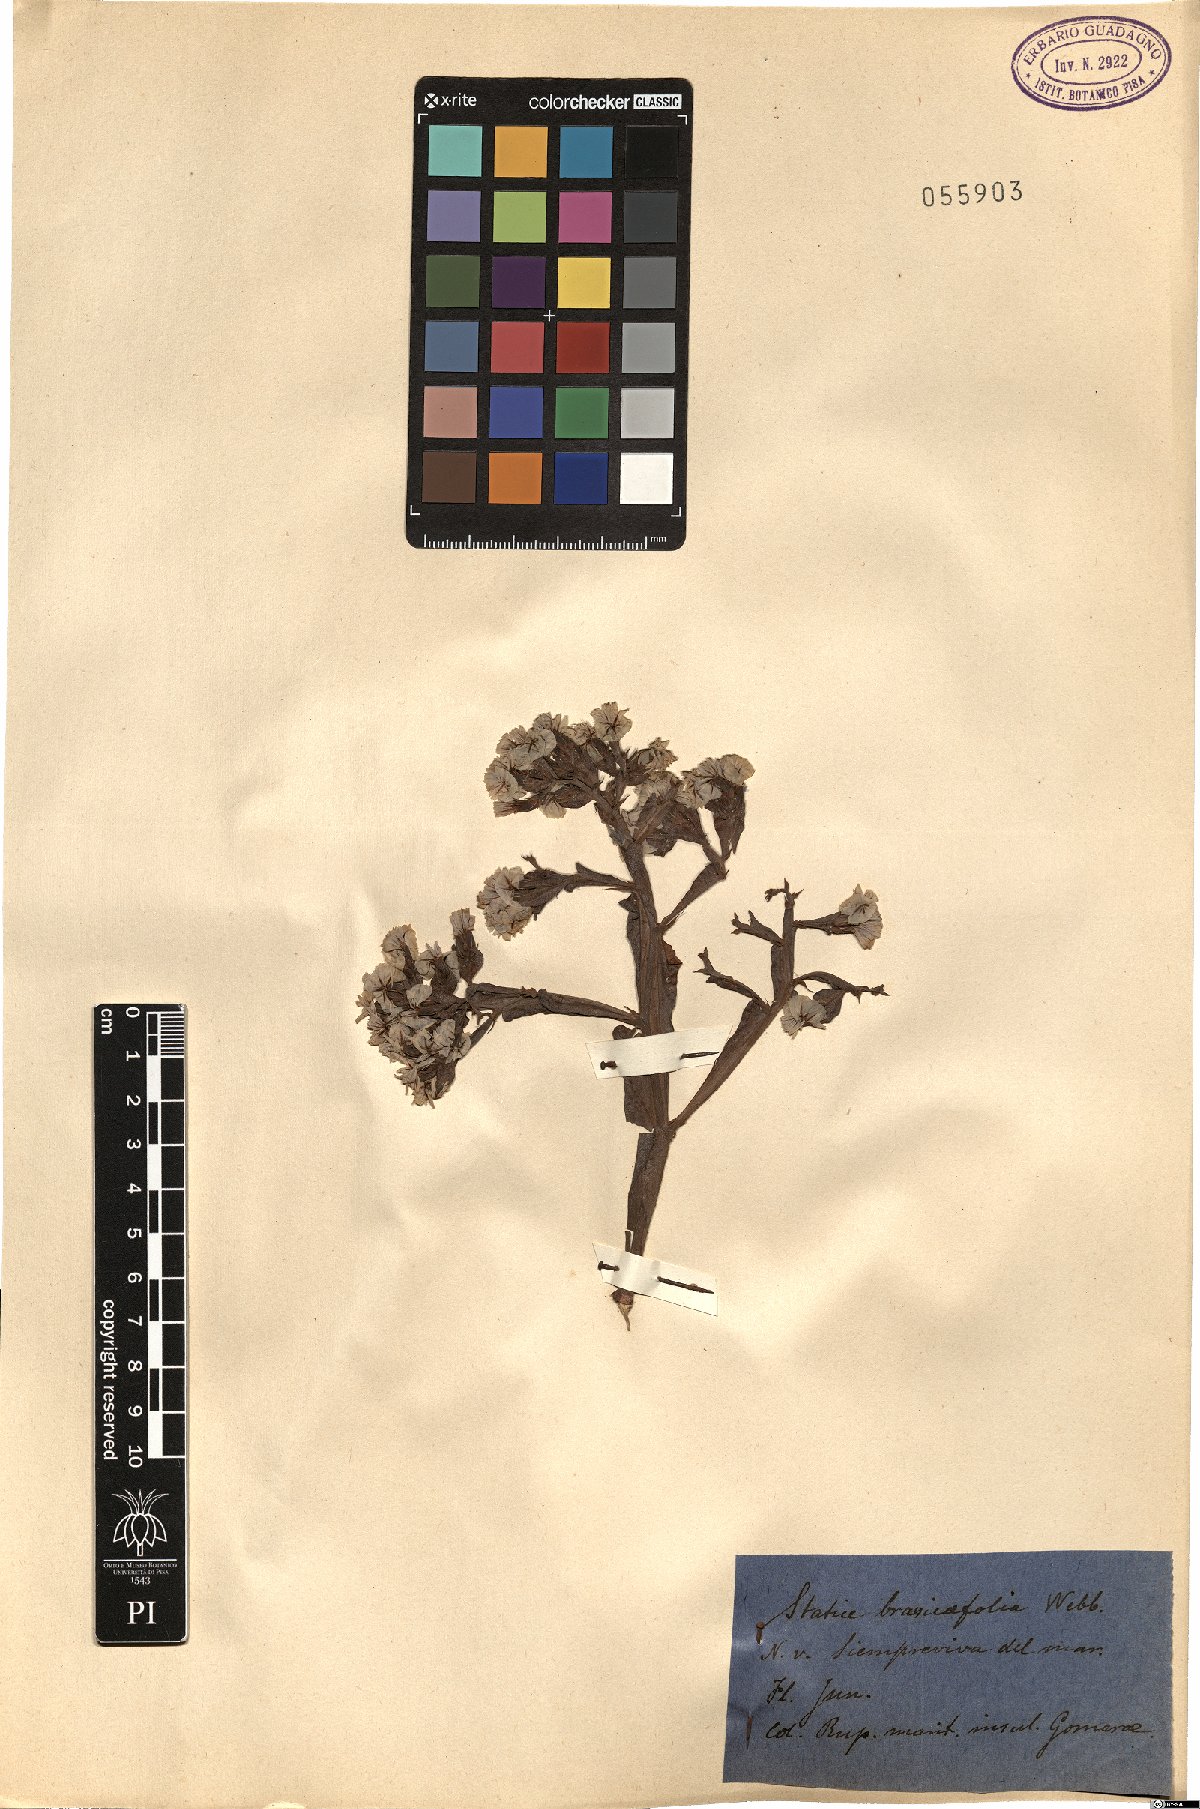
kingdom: Plantae
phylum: Tracheophyta
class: Magnoliopsida
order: Caryophyllales
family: Plumbaginaceae
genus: Limonium
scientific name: Limonium brassicifolium
